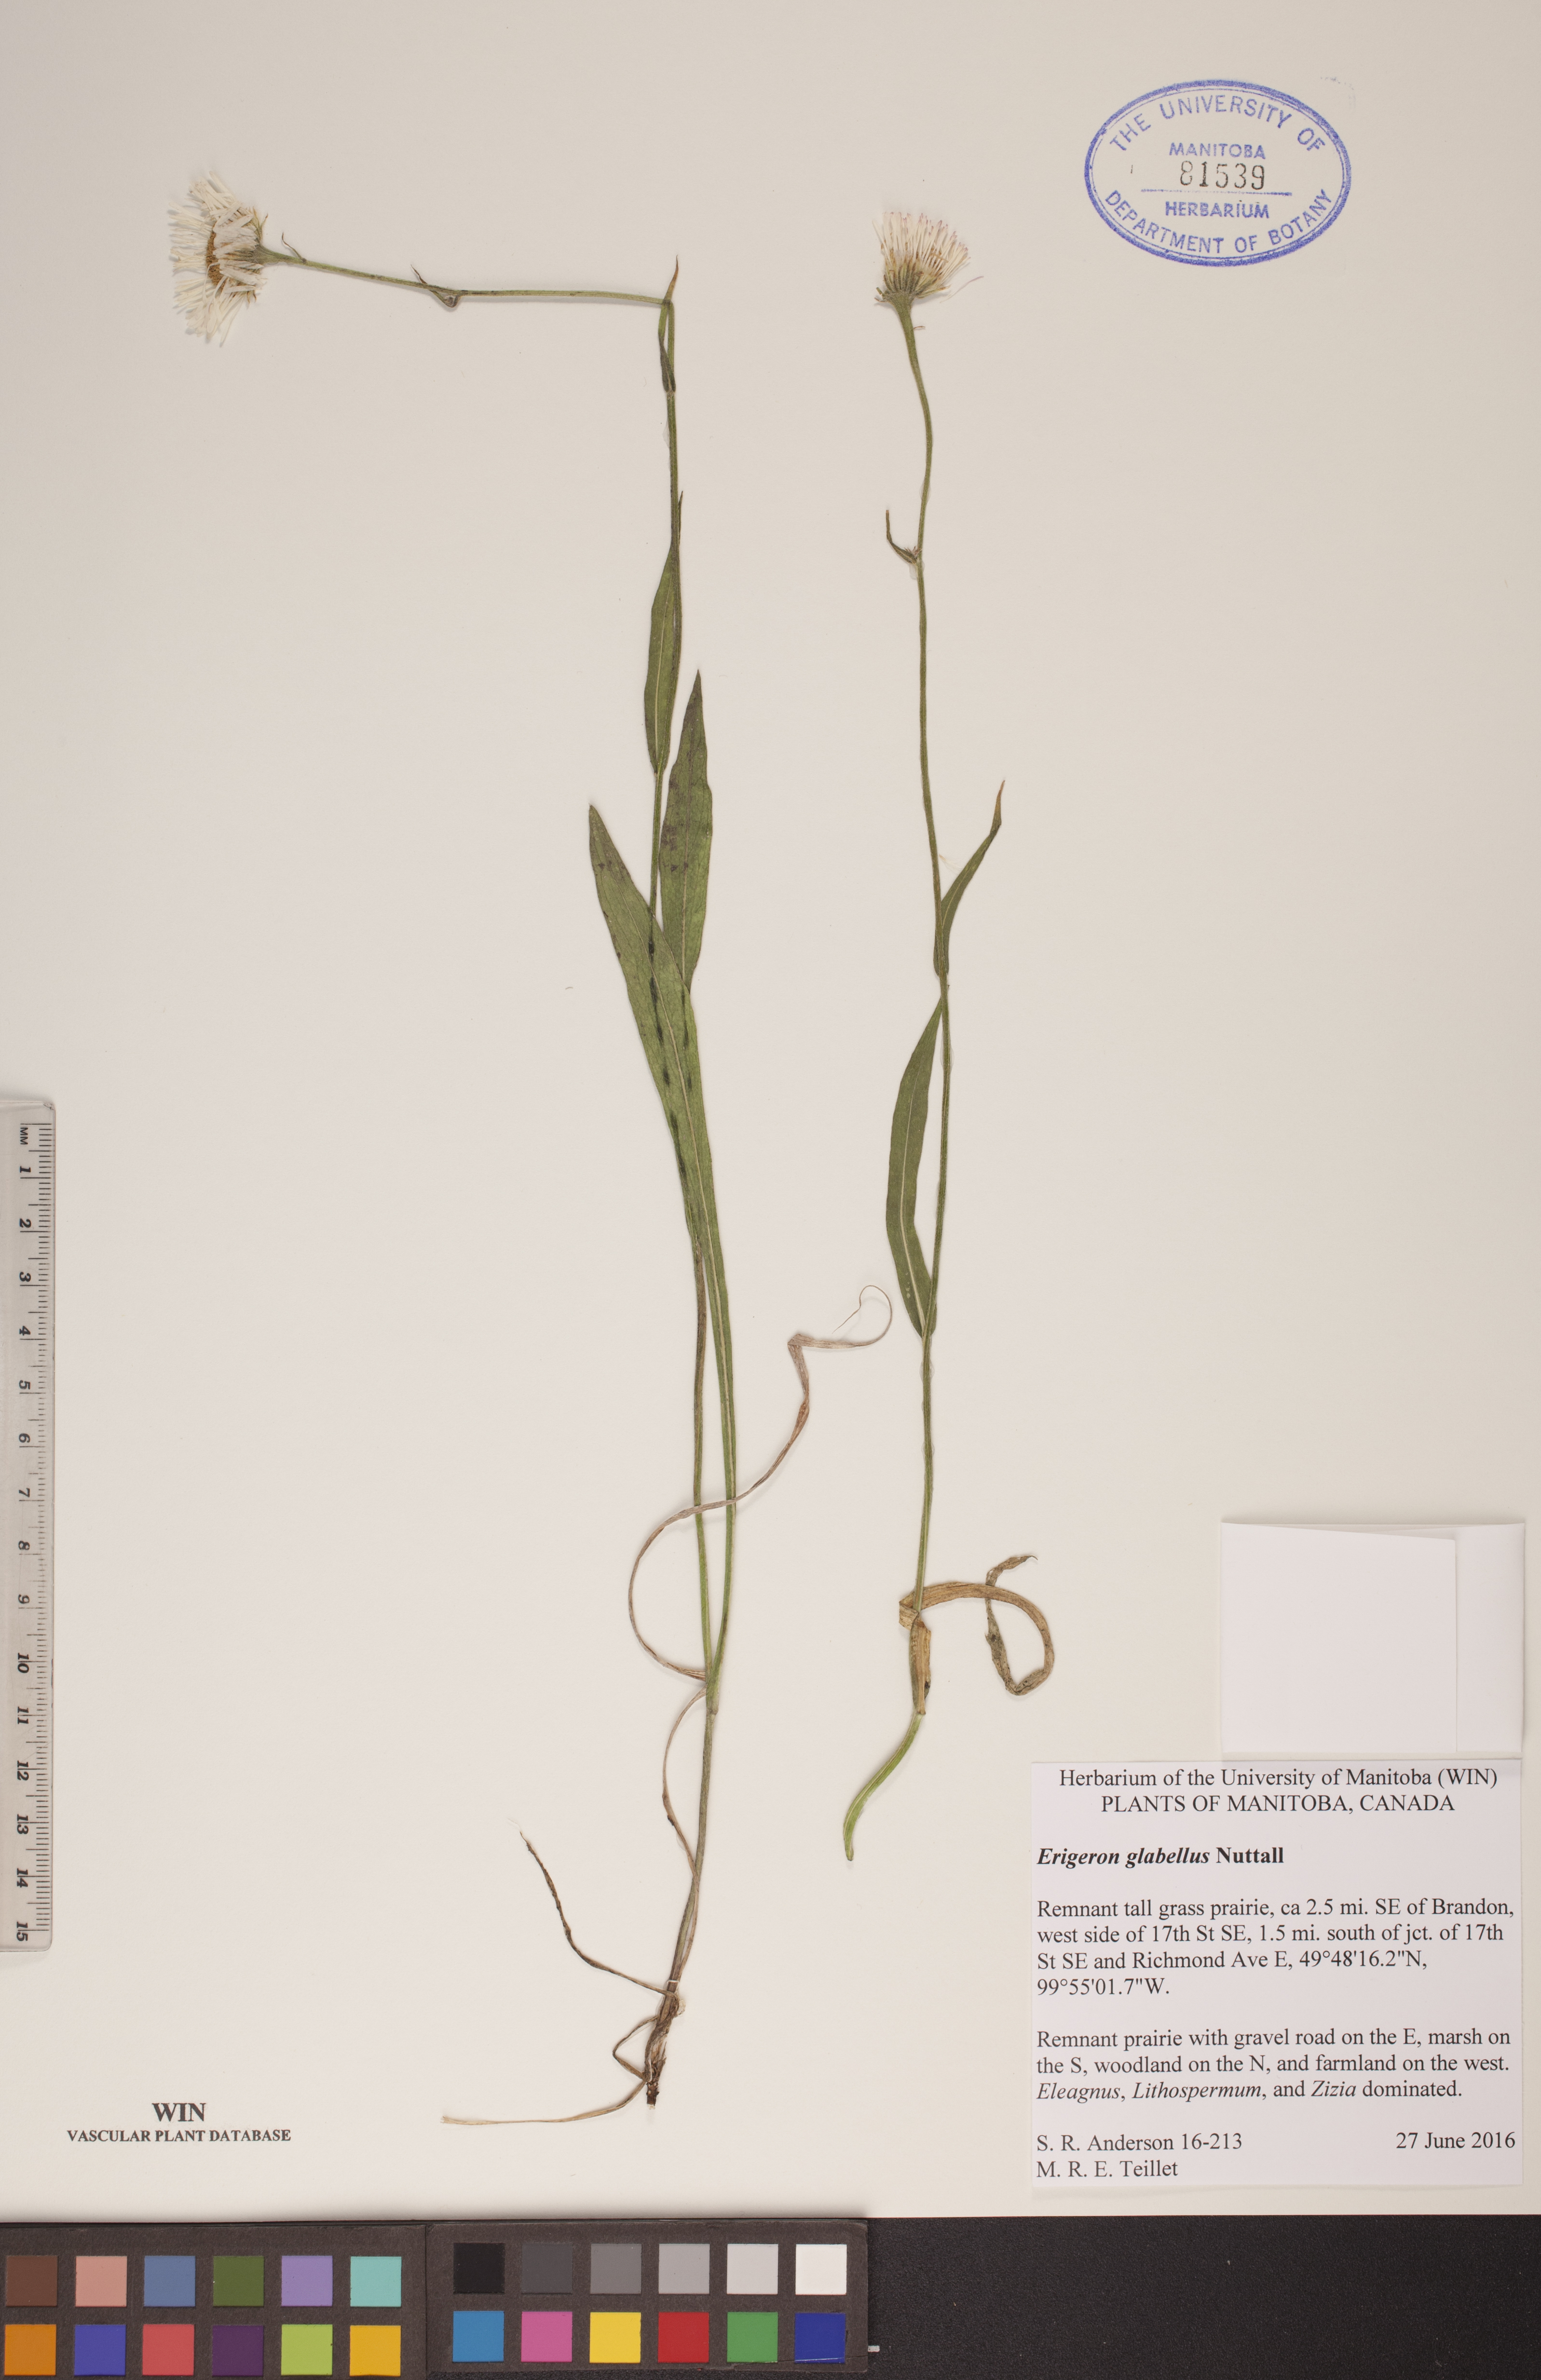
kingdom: Plantae
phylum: Tracheophyta
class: Magnoliopsida
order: Asterales
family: Asteraceae
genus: Erigeron
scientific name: Erigeron glabellus
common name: Smooth fleabane
